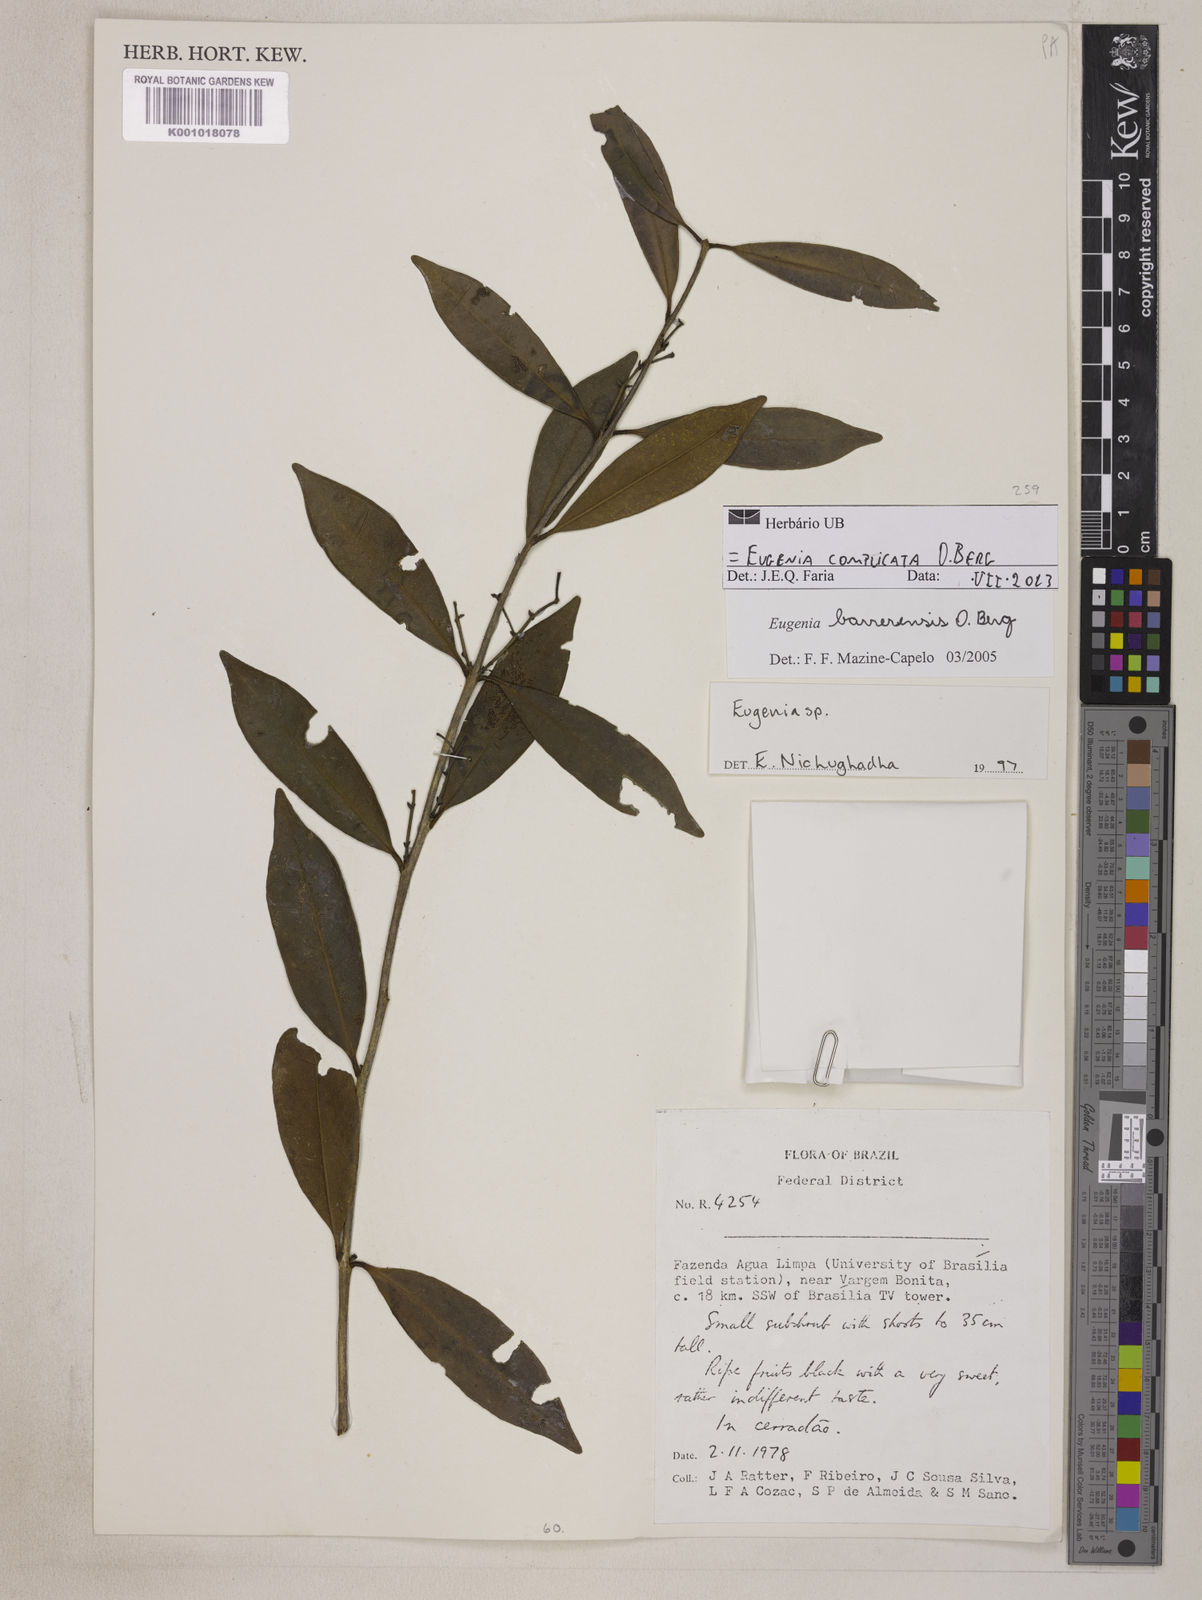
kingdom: Plantae
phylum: Tracheophyta
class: Magnoliopsida
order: Myrtales
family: Myrtaceae
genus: Eugenia
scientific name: Eugenia complicata
